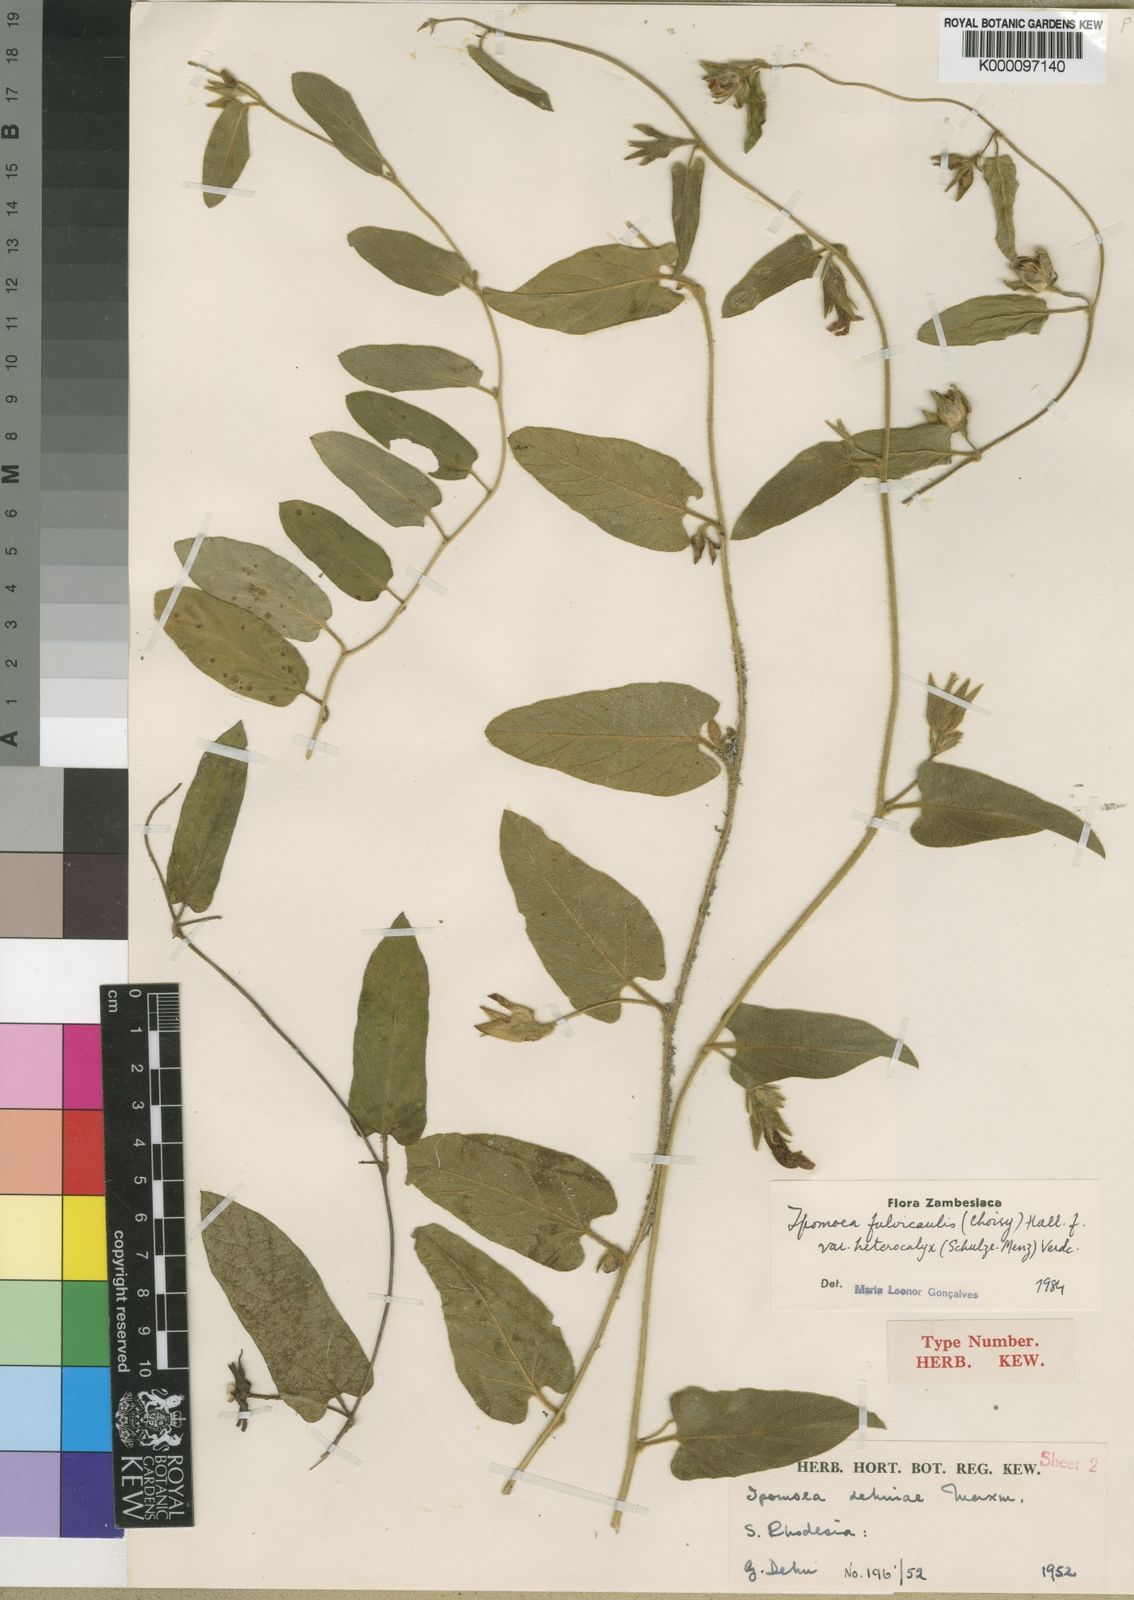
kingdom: Plantae
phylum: Tracheophyta
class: Magnoliopsida
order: Solanales
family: Convolvulaceae
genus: Ipomoea
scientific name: Ipomoea fulvicaulis
